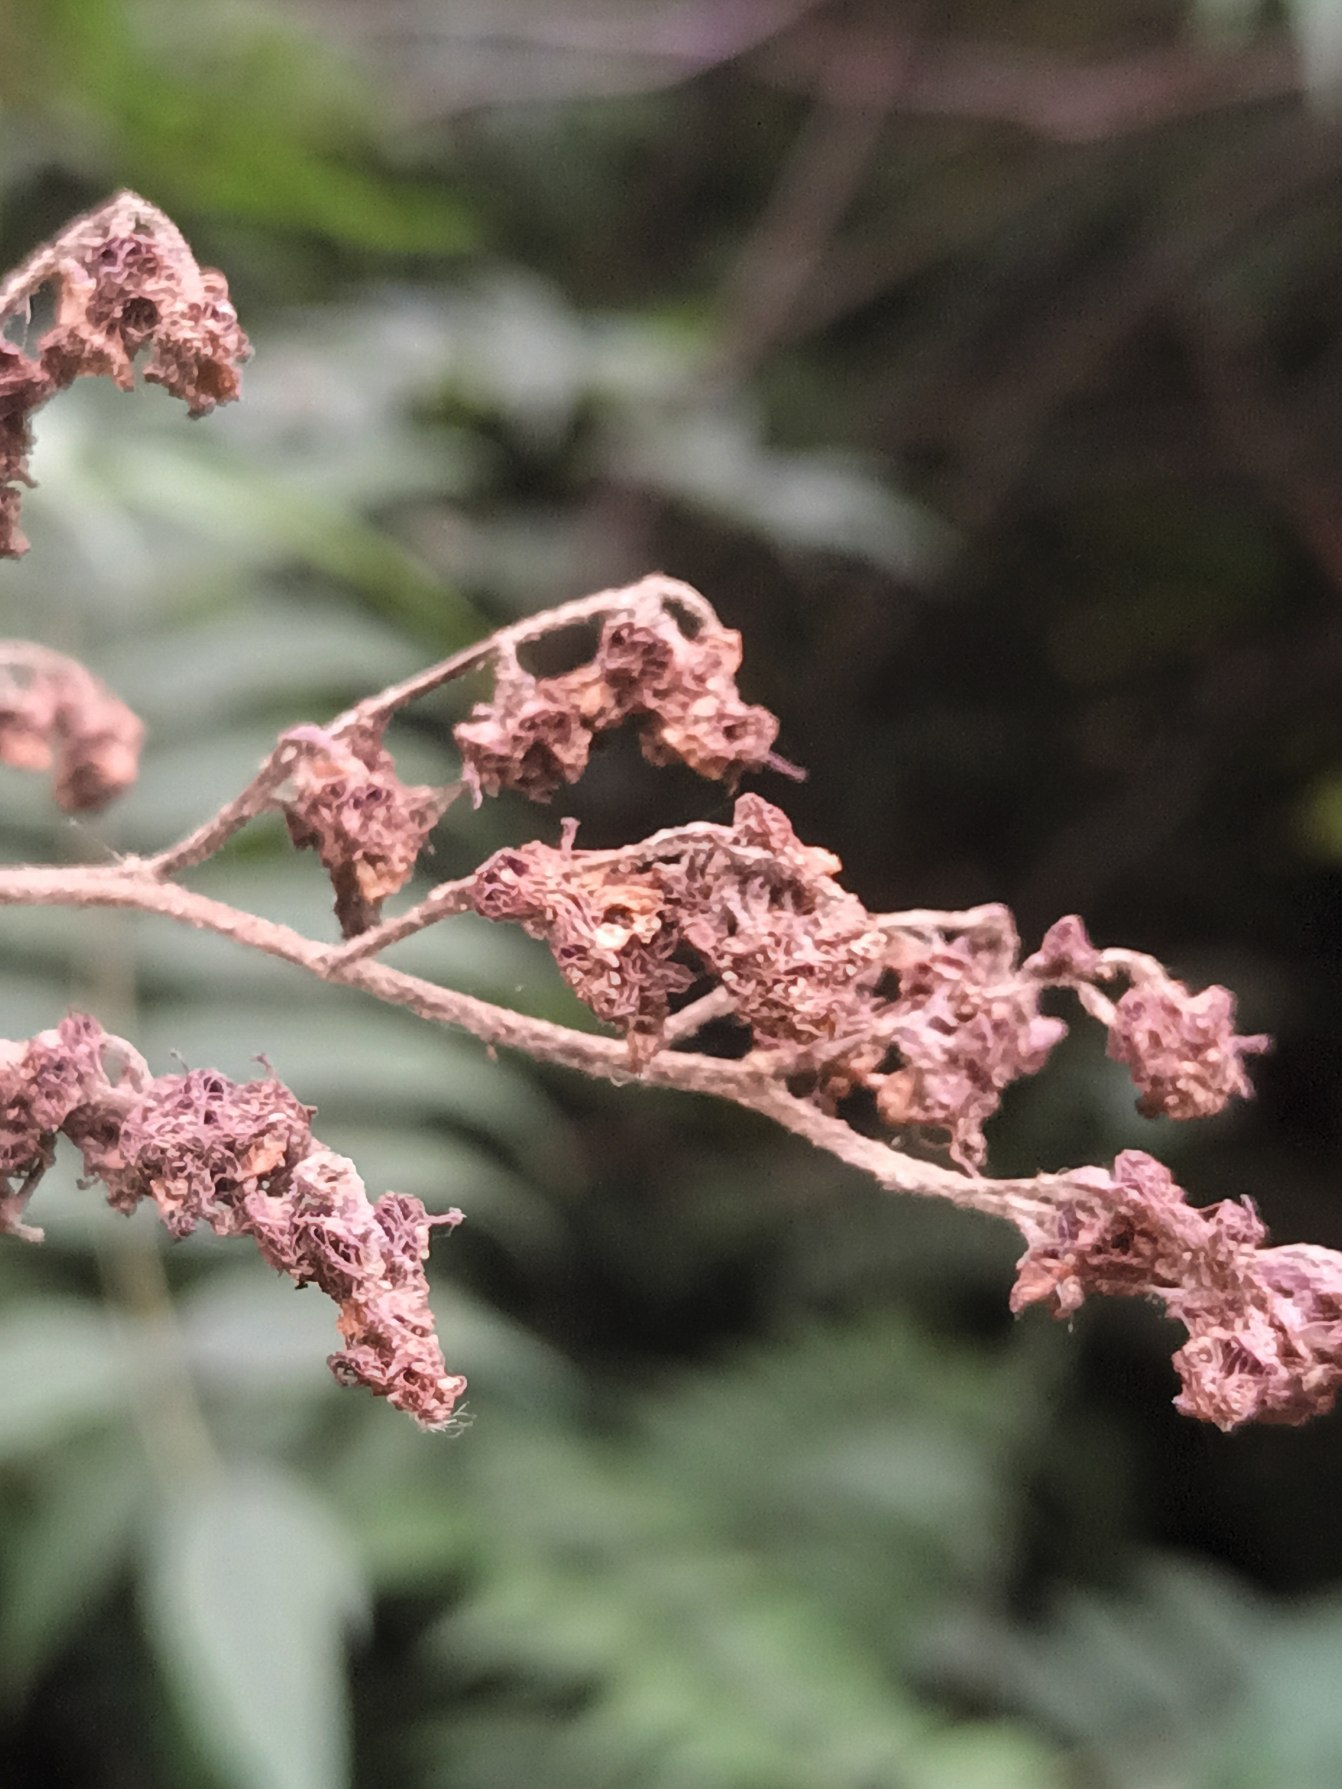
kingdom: Plantae
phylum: Tracheophyta
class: Magnoliopsida
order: Rosales
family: Rosaceae
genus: Sorbaria
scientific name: Sorbaria kirilowii
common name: Kinesisk tusindtop
